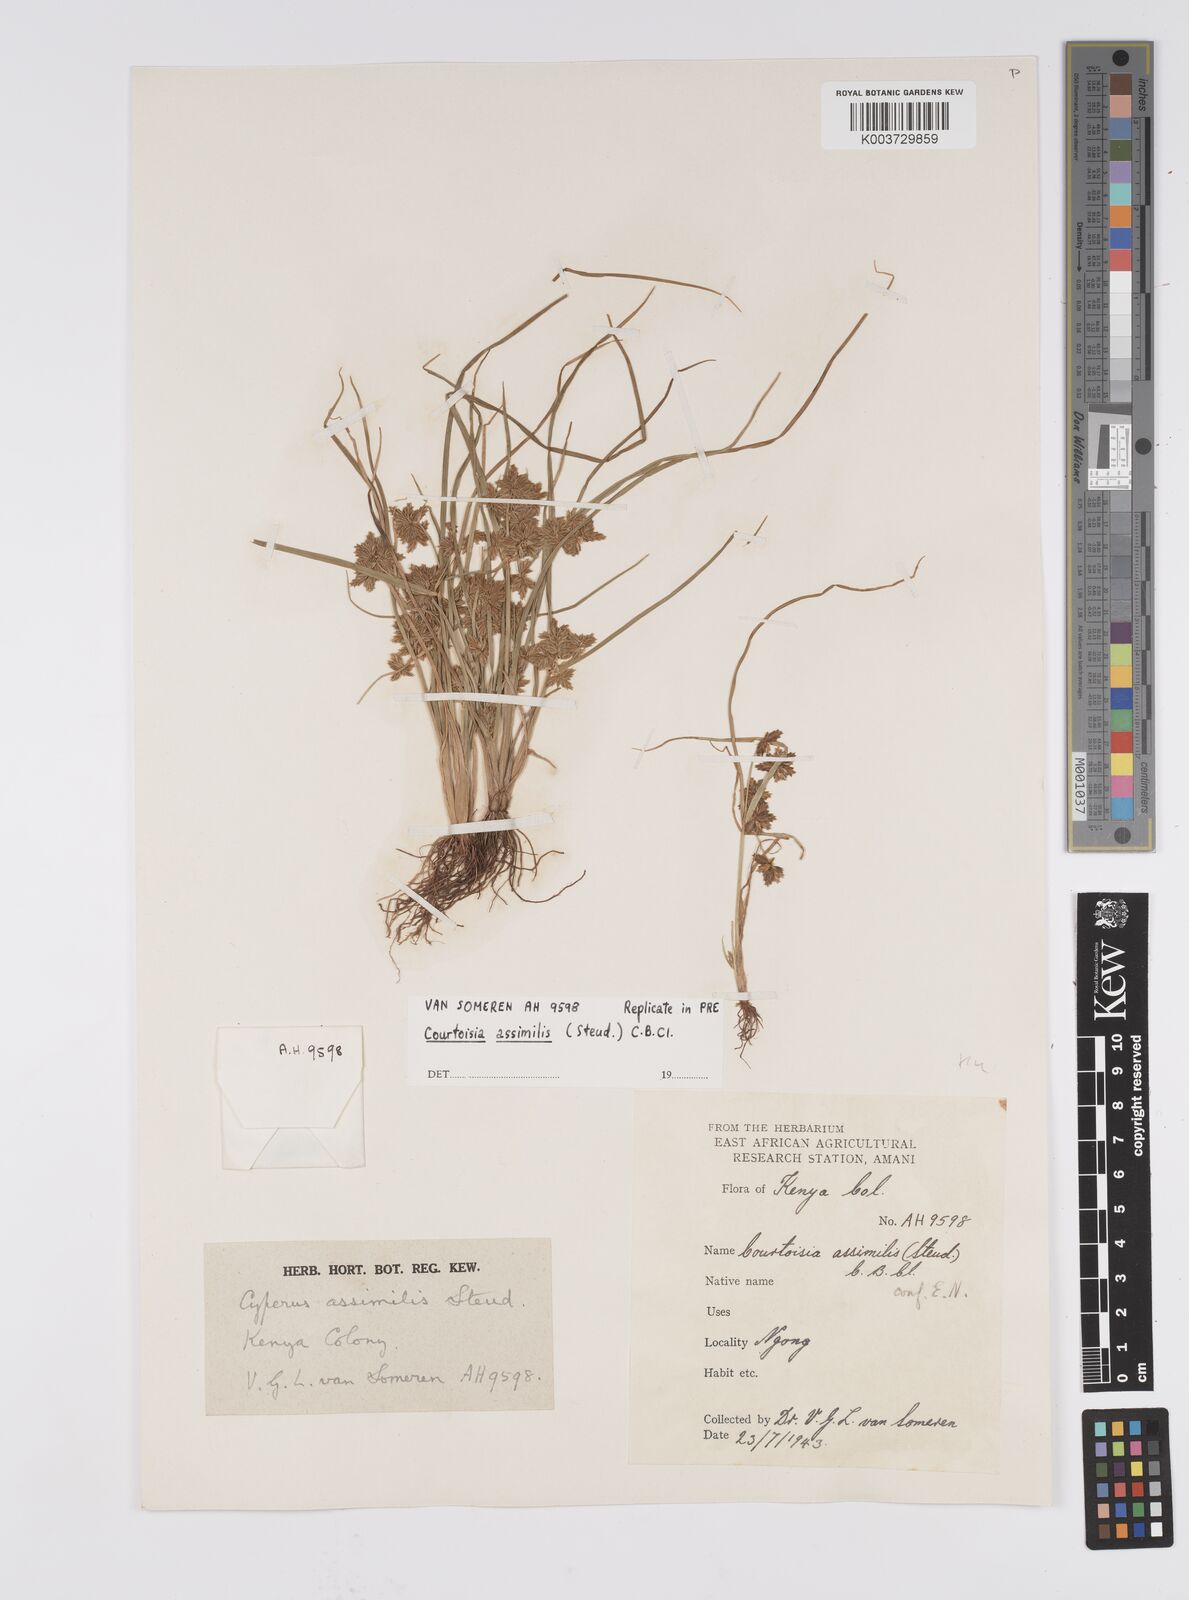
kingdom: Plantae
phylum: Tracheophyta
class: Liliopsida
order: Poales
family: Cyperaceae
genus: Cyperus
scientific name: Cyperus assimilis
